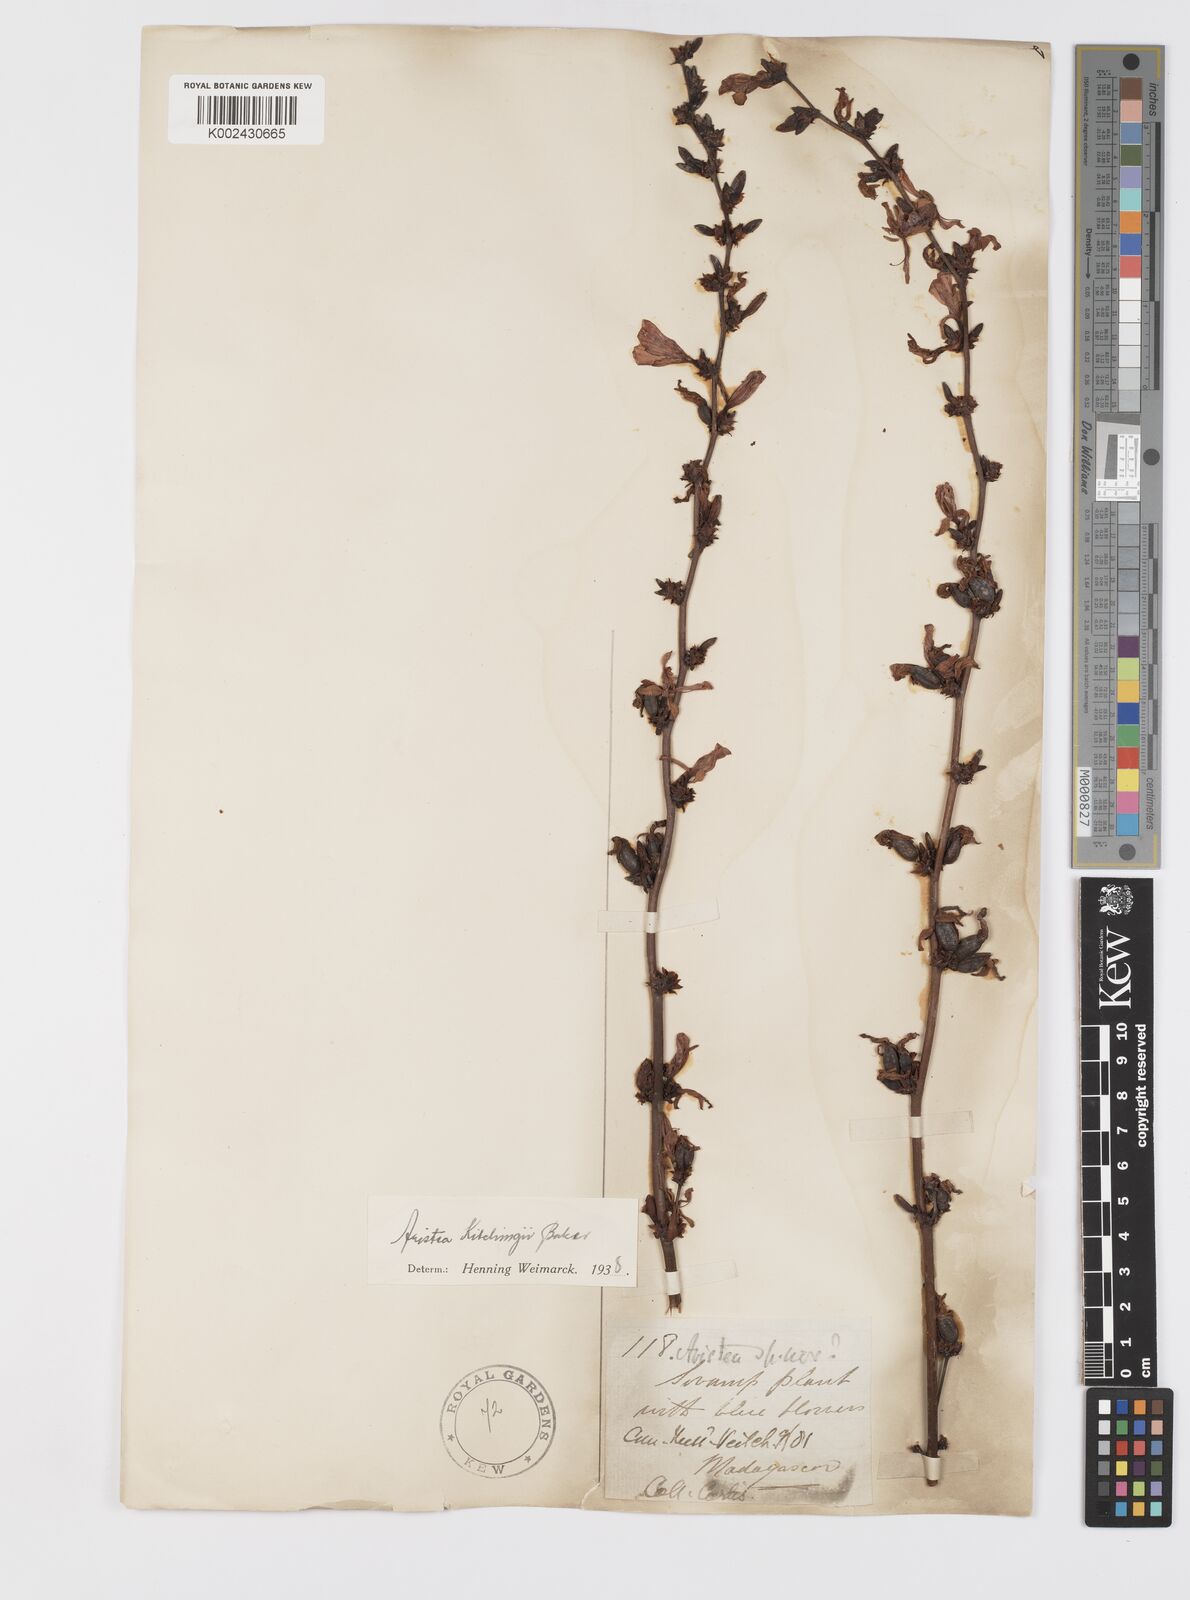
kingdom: Plantae
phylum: Tracheophyta
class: Liliopsida
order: Asparagales
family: Iridaceae
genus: Aristea
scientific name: Aristea kitchingii
